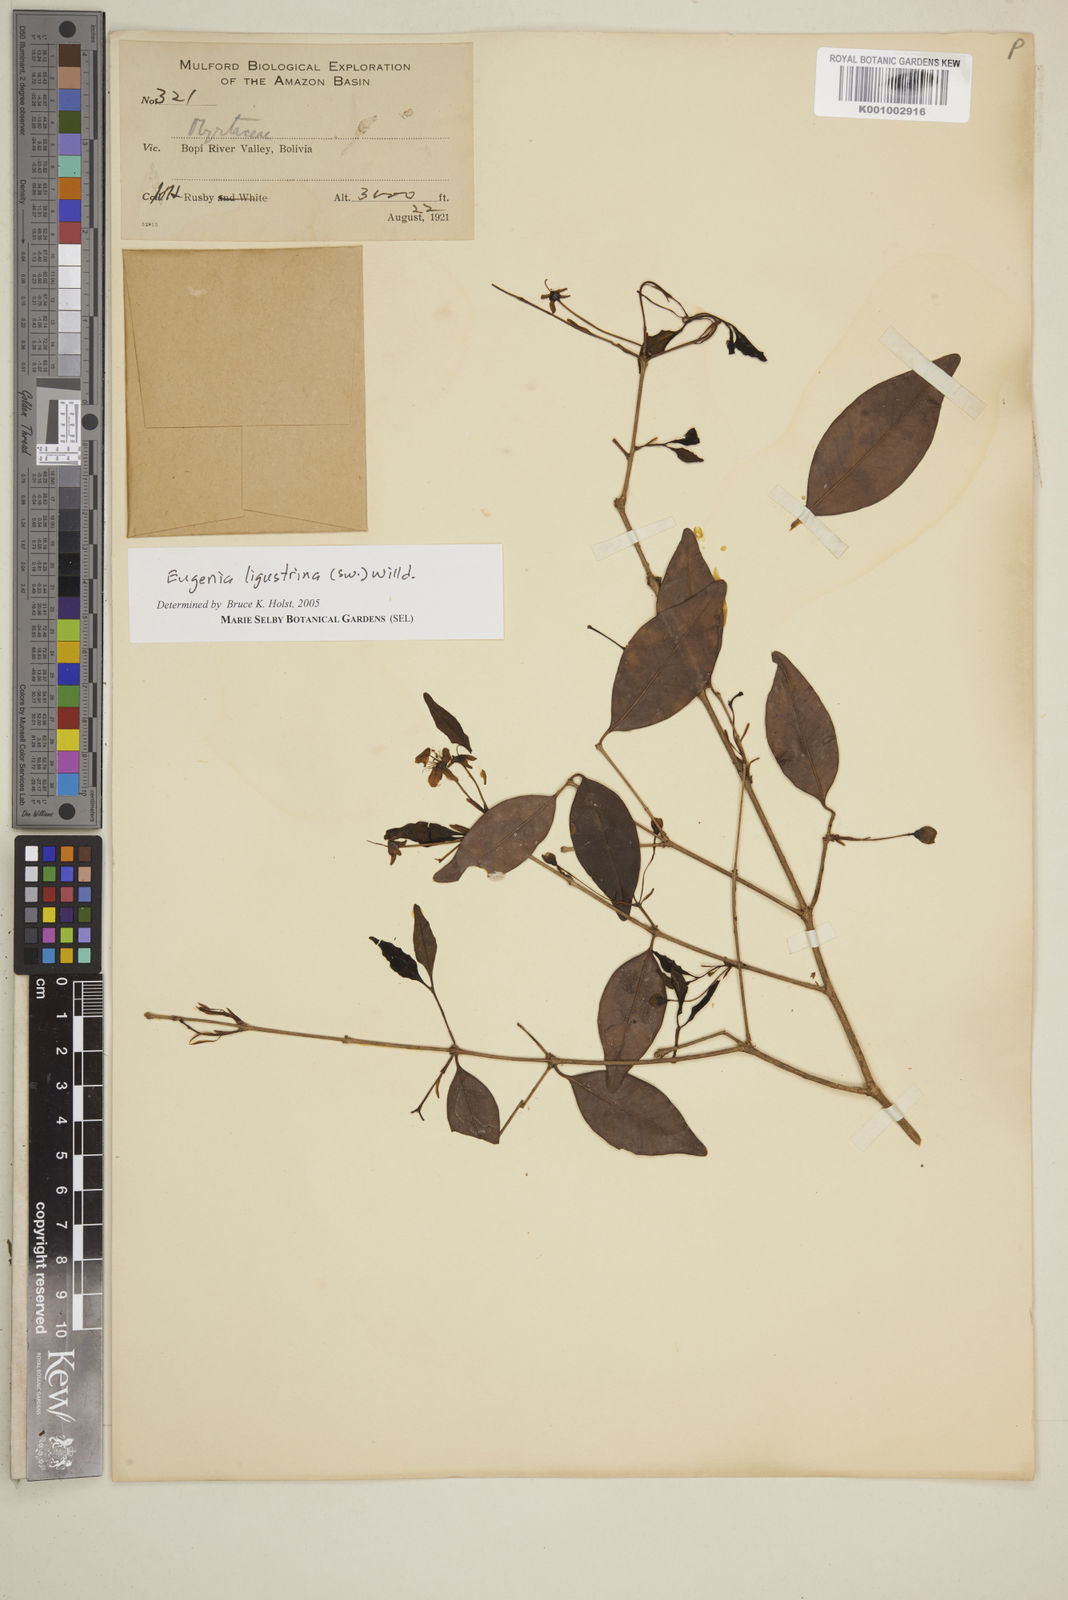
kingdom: Plantae
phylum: Tracheophyta
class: Magnoliopsida
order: Myrtales
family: Myrtaceae
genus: Eugenia
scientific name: Eugenia ligustrina
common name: Privet stopper
